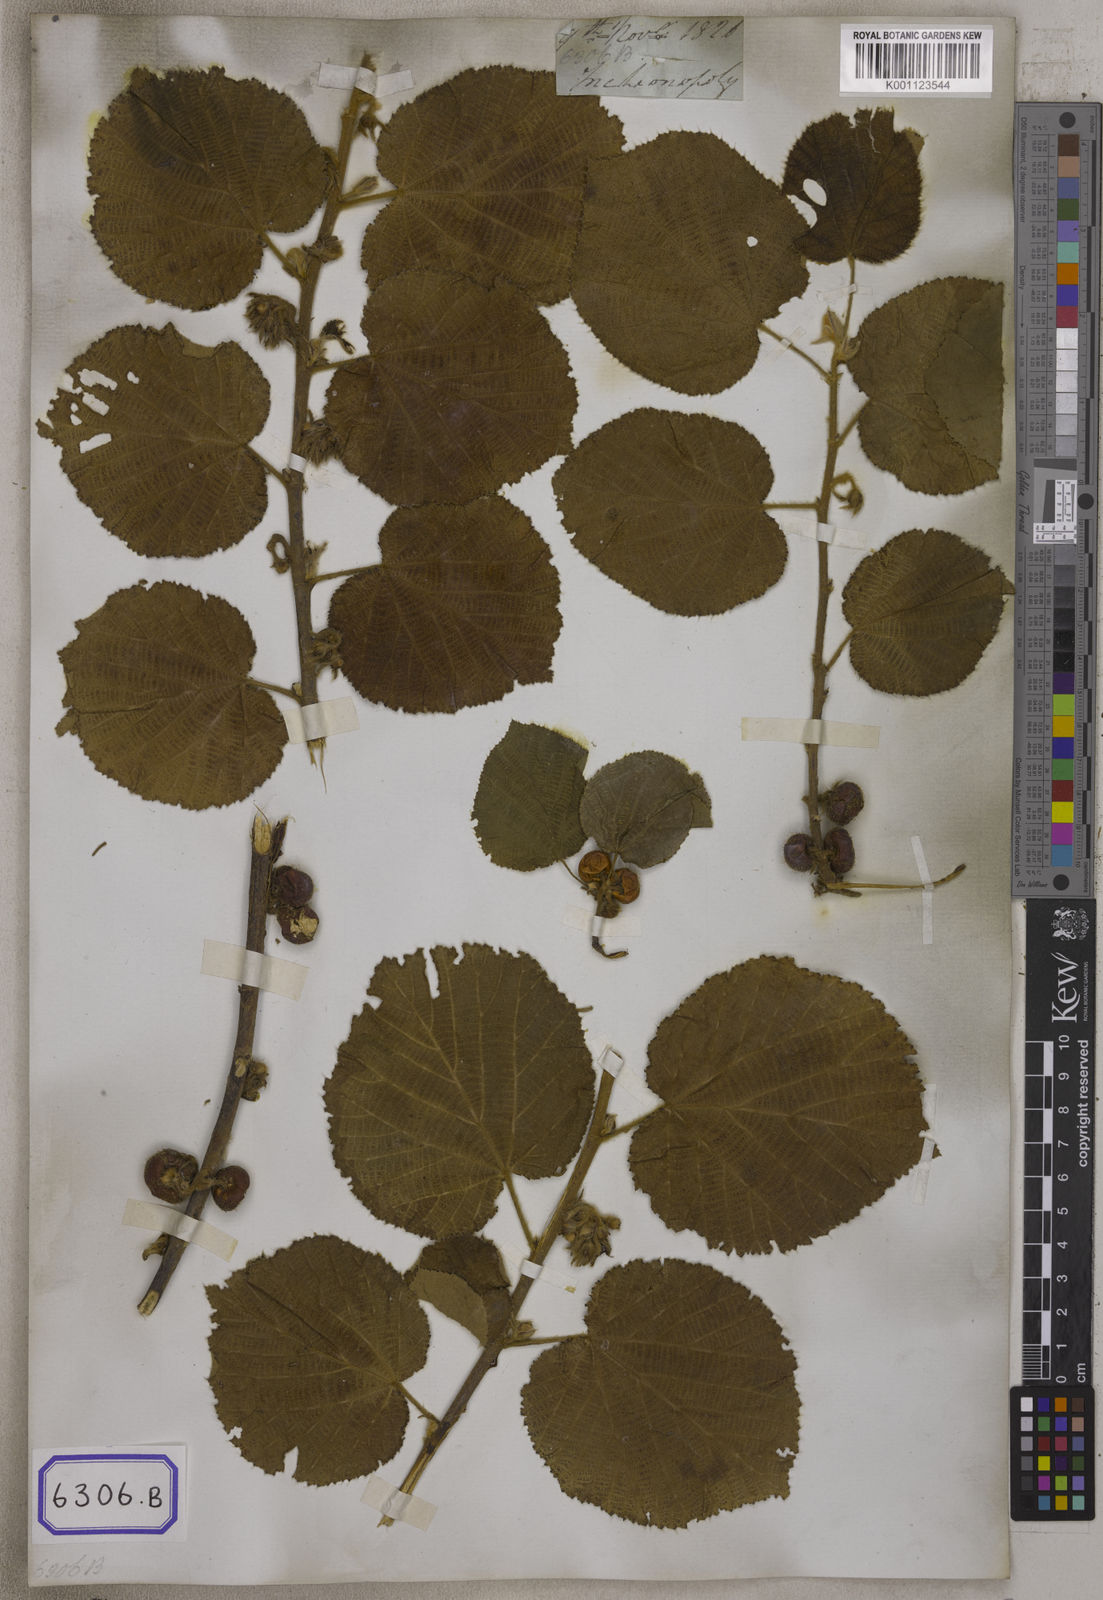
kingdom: Plantae
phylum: Tracheophyta
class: Magnoliopsida
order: Malvales
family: Malvaceae
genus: Grewia
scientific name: Grewia villosa
